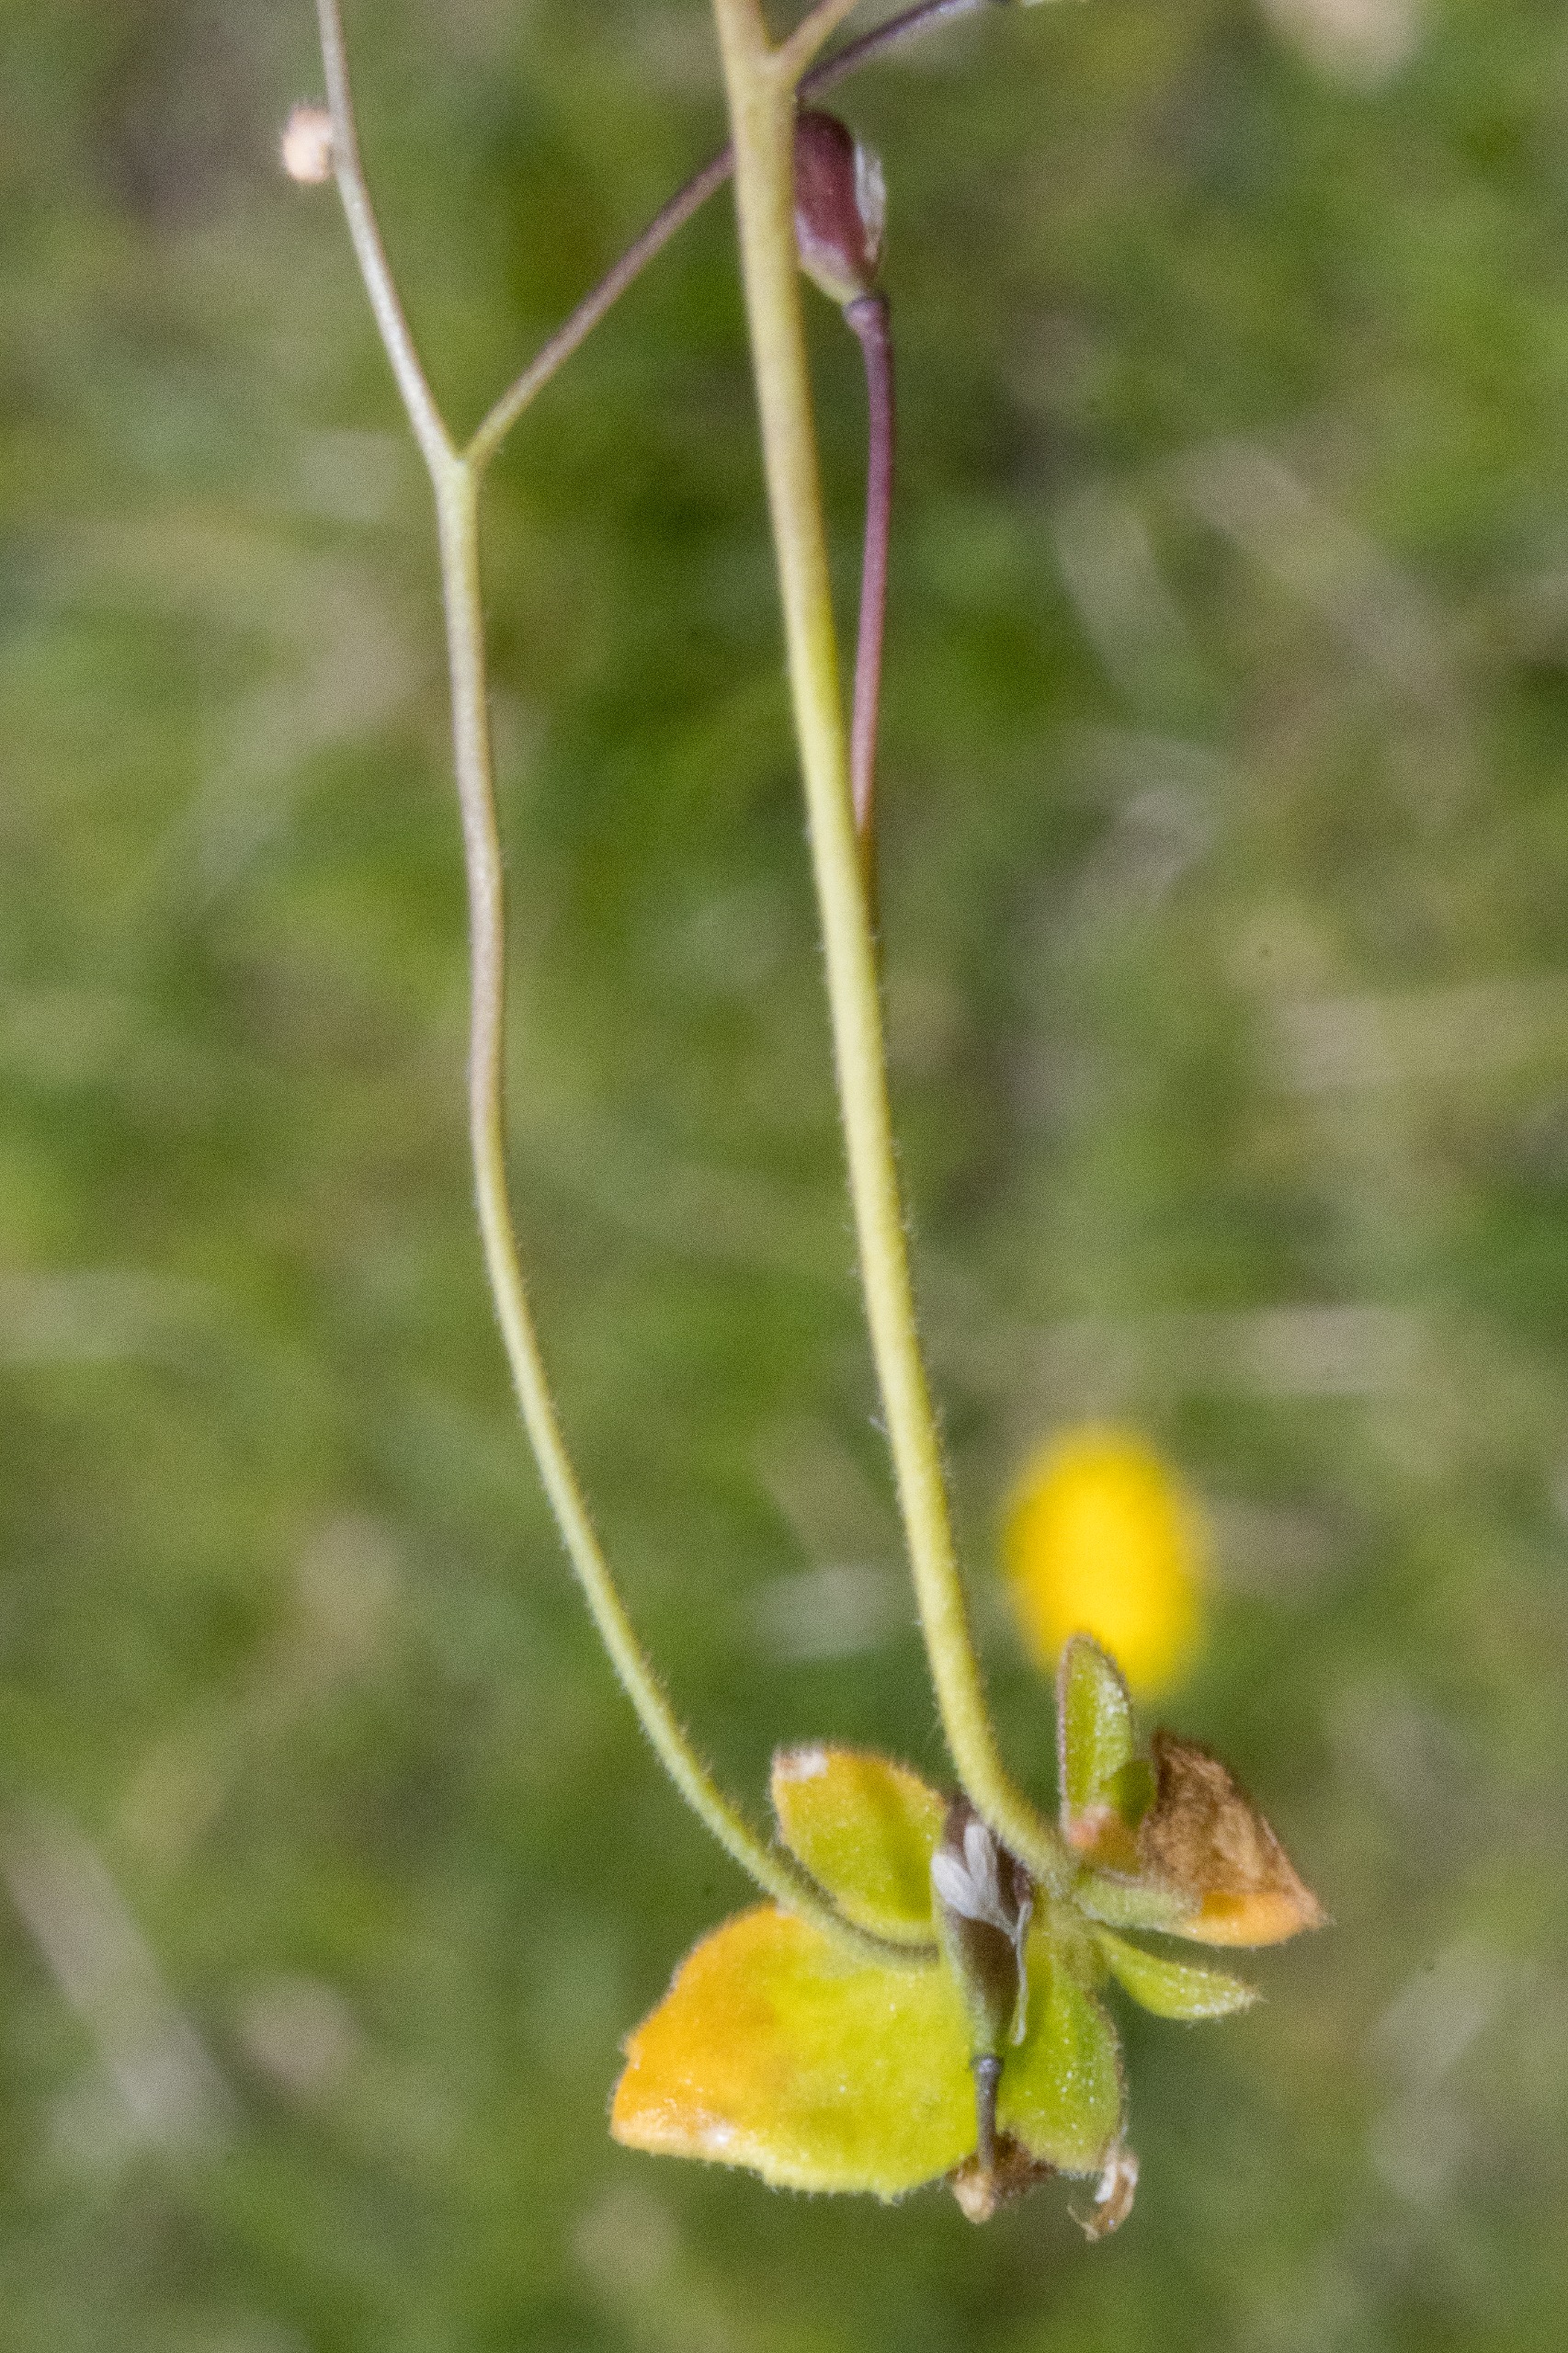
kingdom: Plantae
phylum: Tracheophyta
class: Magnoliopsida
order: Brassicales
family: Brassicaceae
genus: Draba
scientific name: Draba verna
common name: Vår-gæslingeblomst
